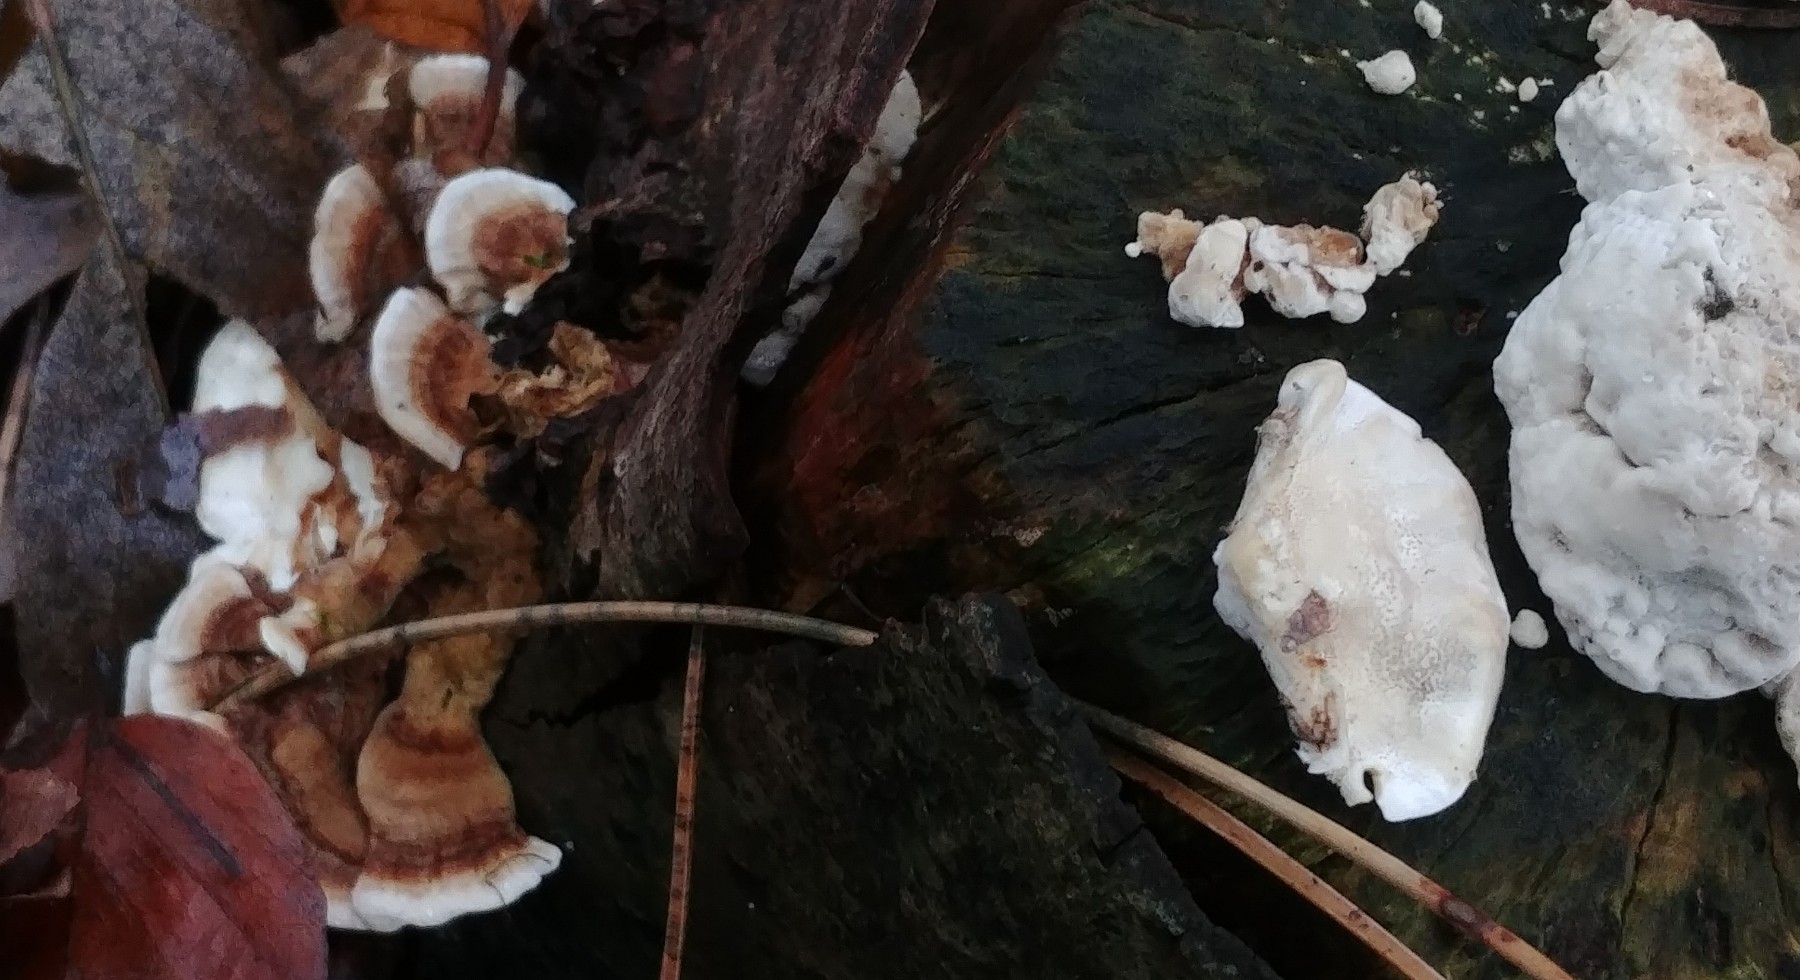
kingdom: Fungi
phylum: Basidiomycota
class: Agaricomycetes
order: Polyporales
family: Polyporaceae
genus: Trametes
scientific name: Trametes versicolor
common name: broget læderporesvamp
